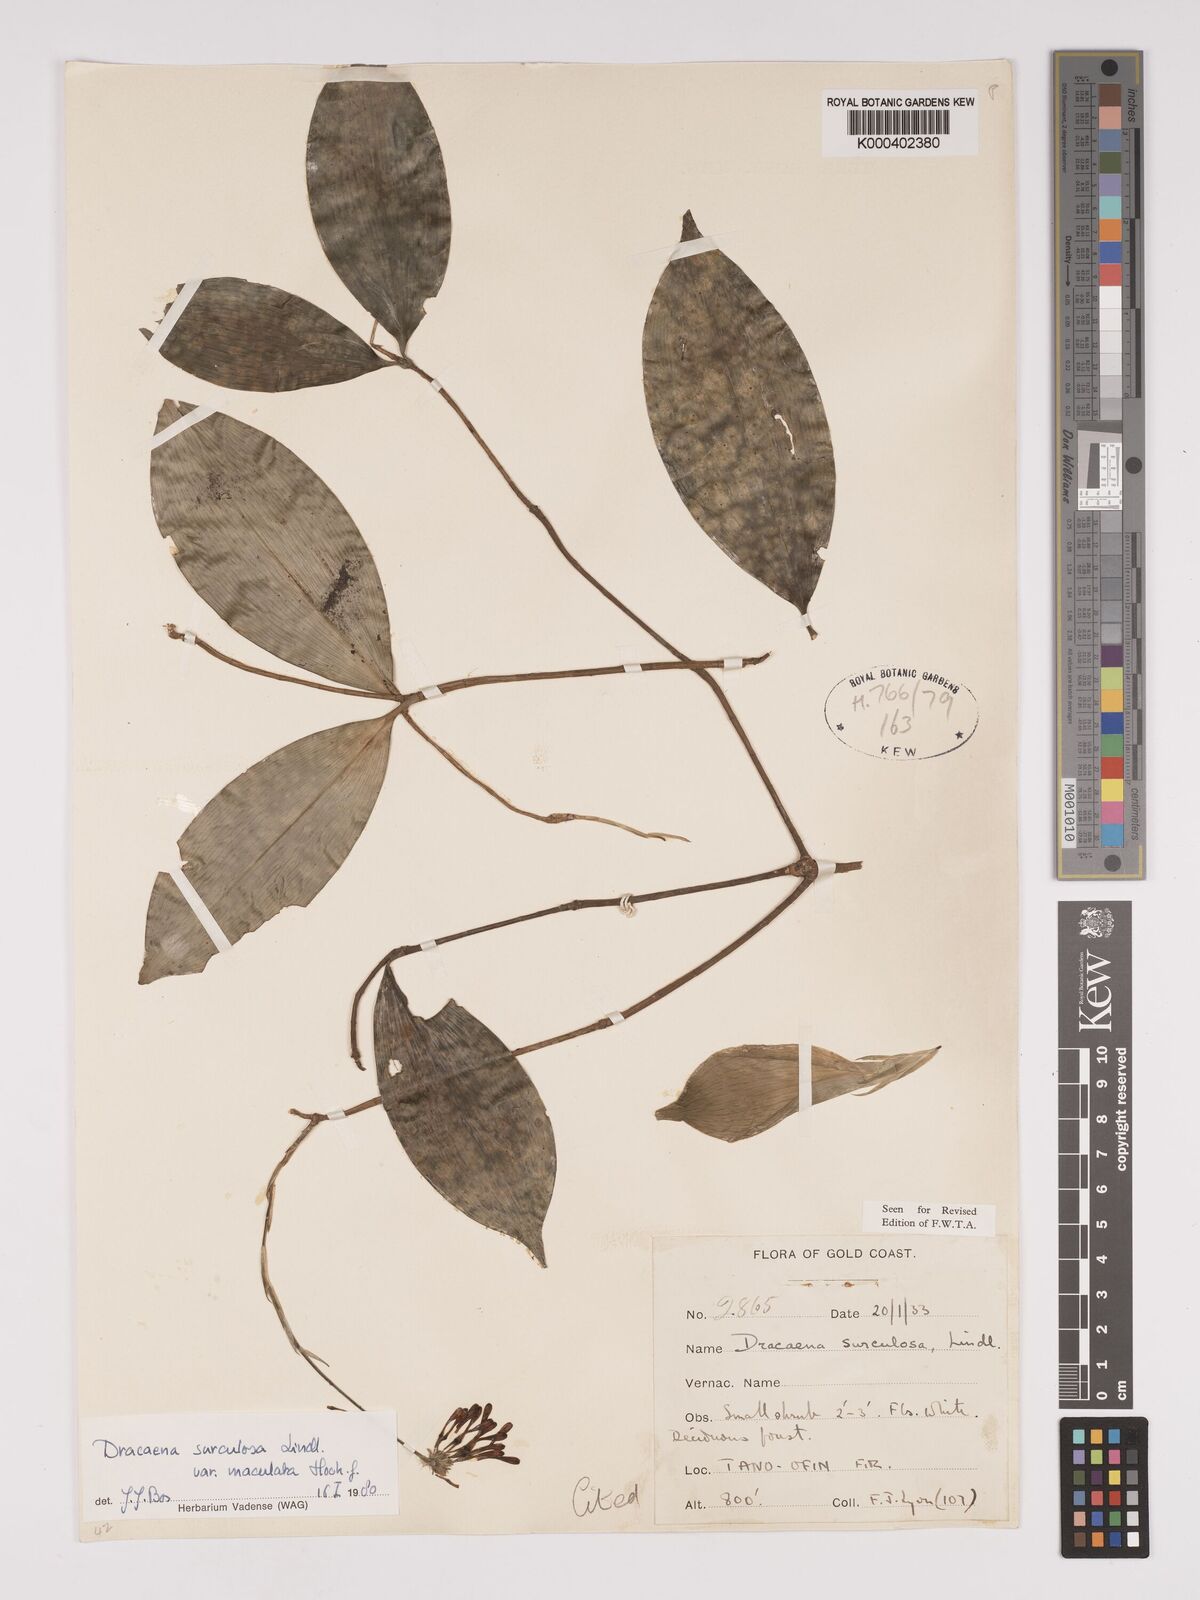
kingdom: Plantae
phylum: Tracheophyta
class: Liliopsida
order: Asparagales
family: Asparagaceae
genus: Dracaena
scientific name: Dracaena surculosa
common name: Spotted dracaena
